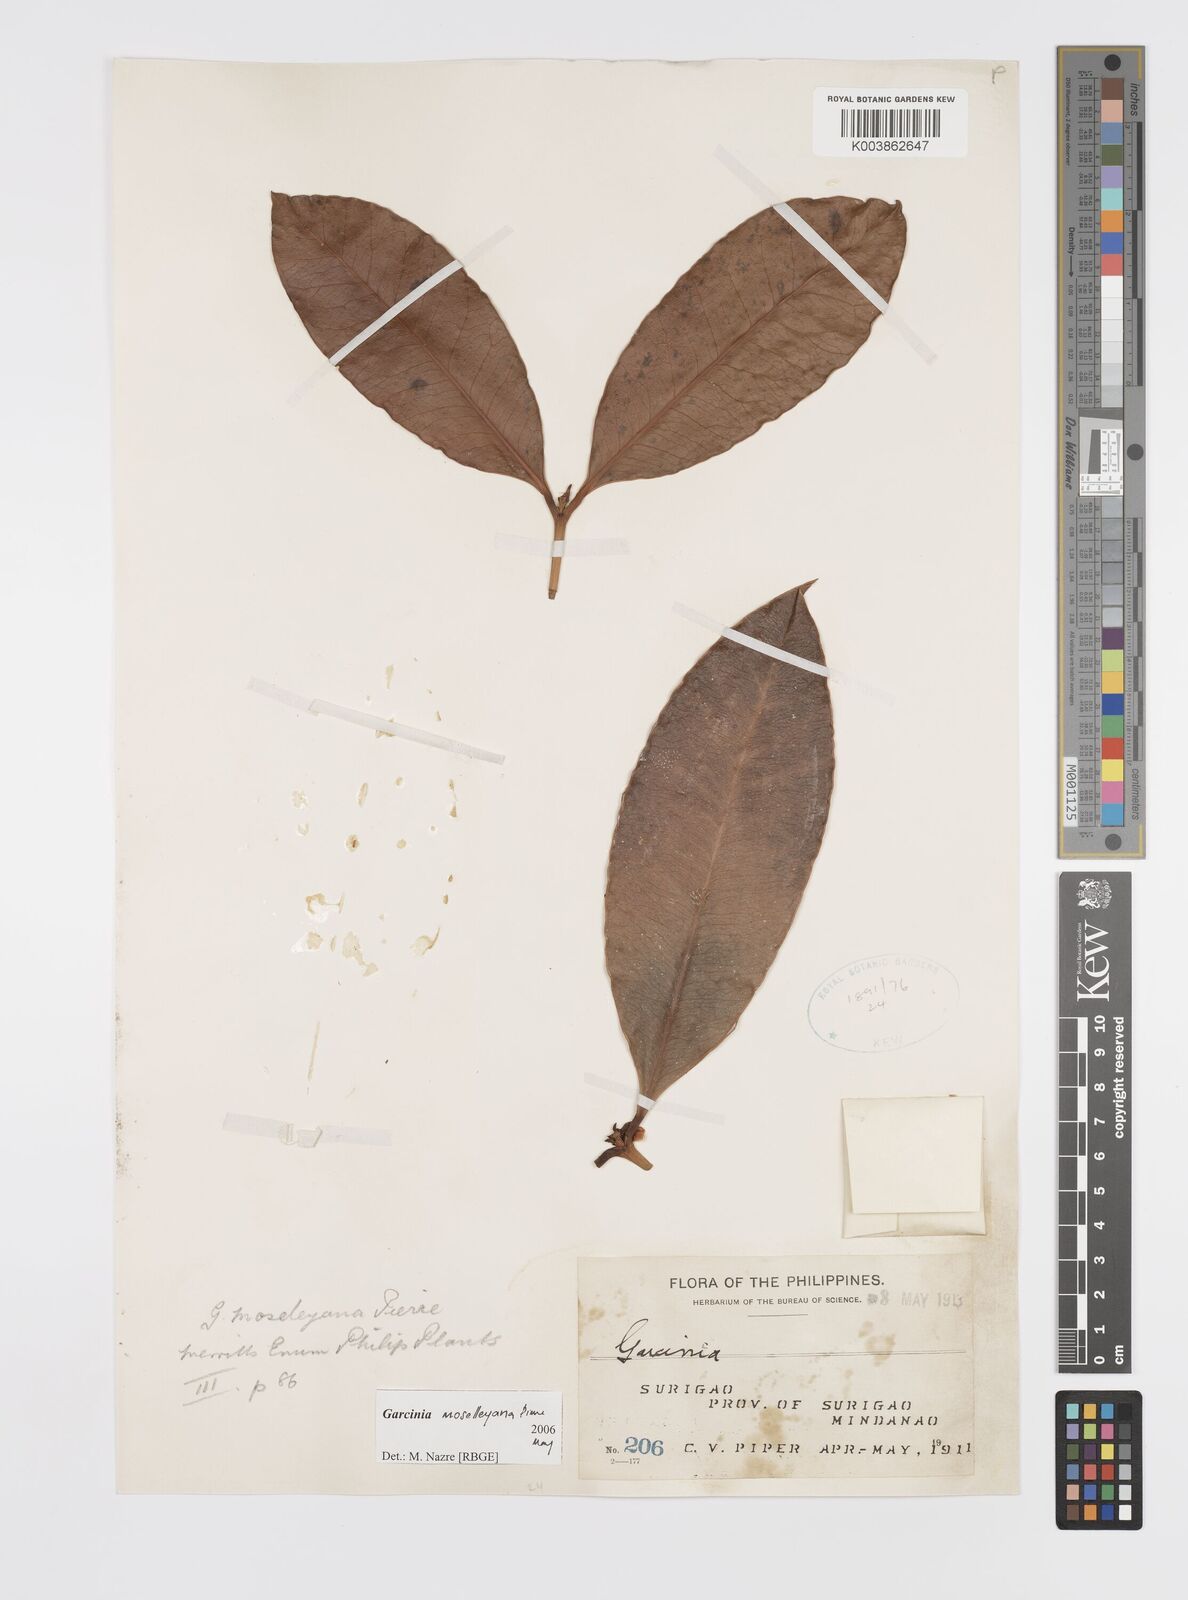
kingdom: Plantae
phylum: Tracheophyta
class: Magnoliopsida
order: Malpighiales
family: Clusiaceae
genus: Garcinia
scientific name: Garcinia
